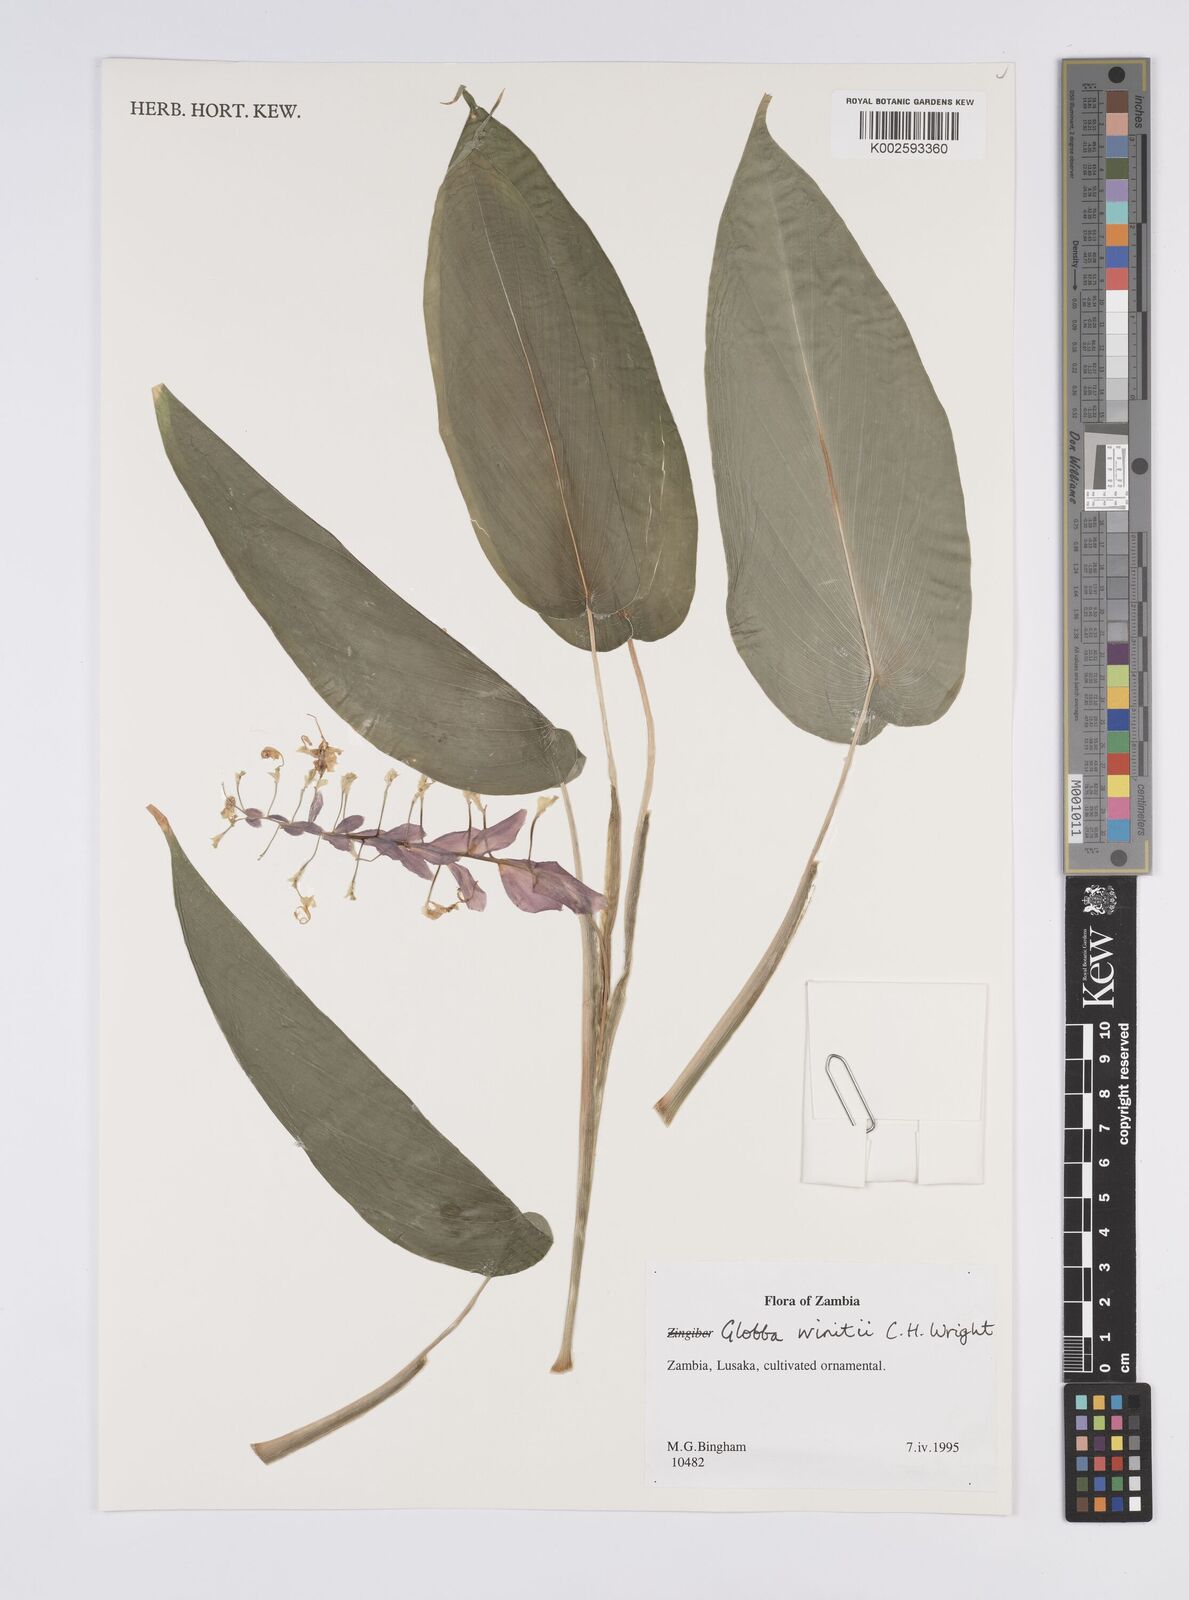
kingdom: Plantae
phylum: Tracheophyta
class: Liliopsida
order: Zingiberales
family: Zingiberaceae
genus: Globba
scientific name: Globba winitii
